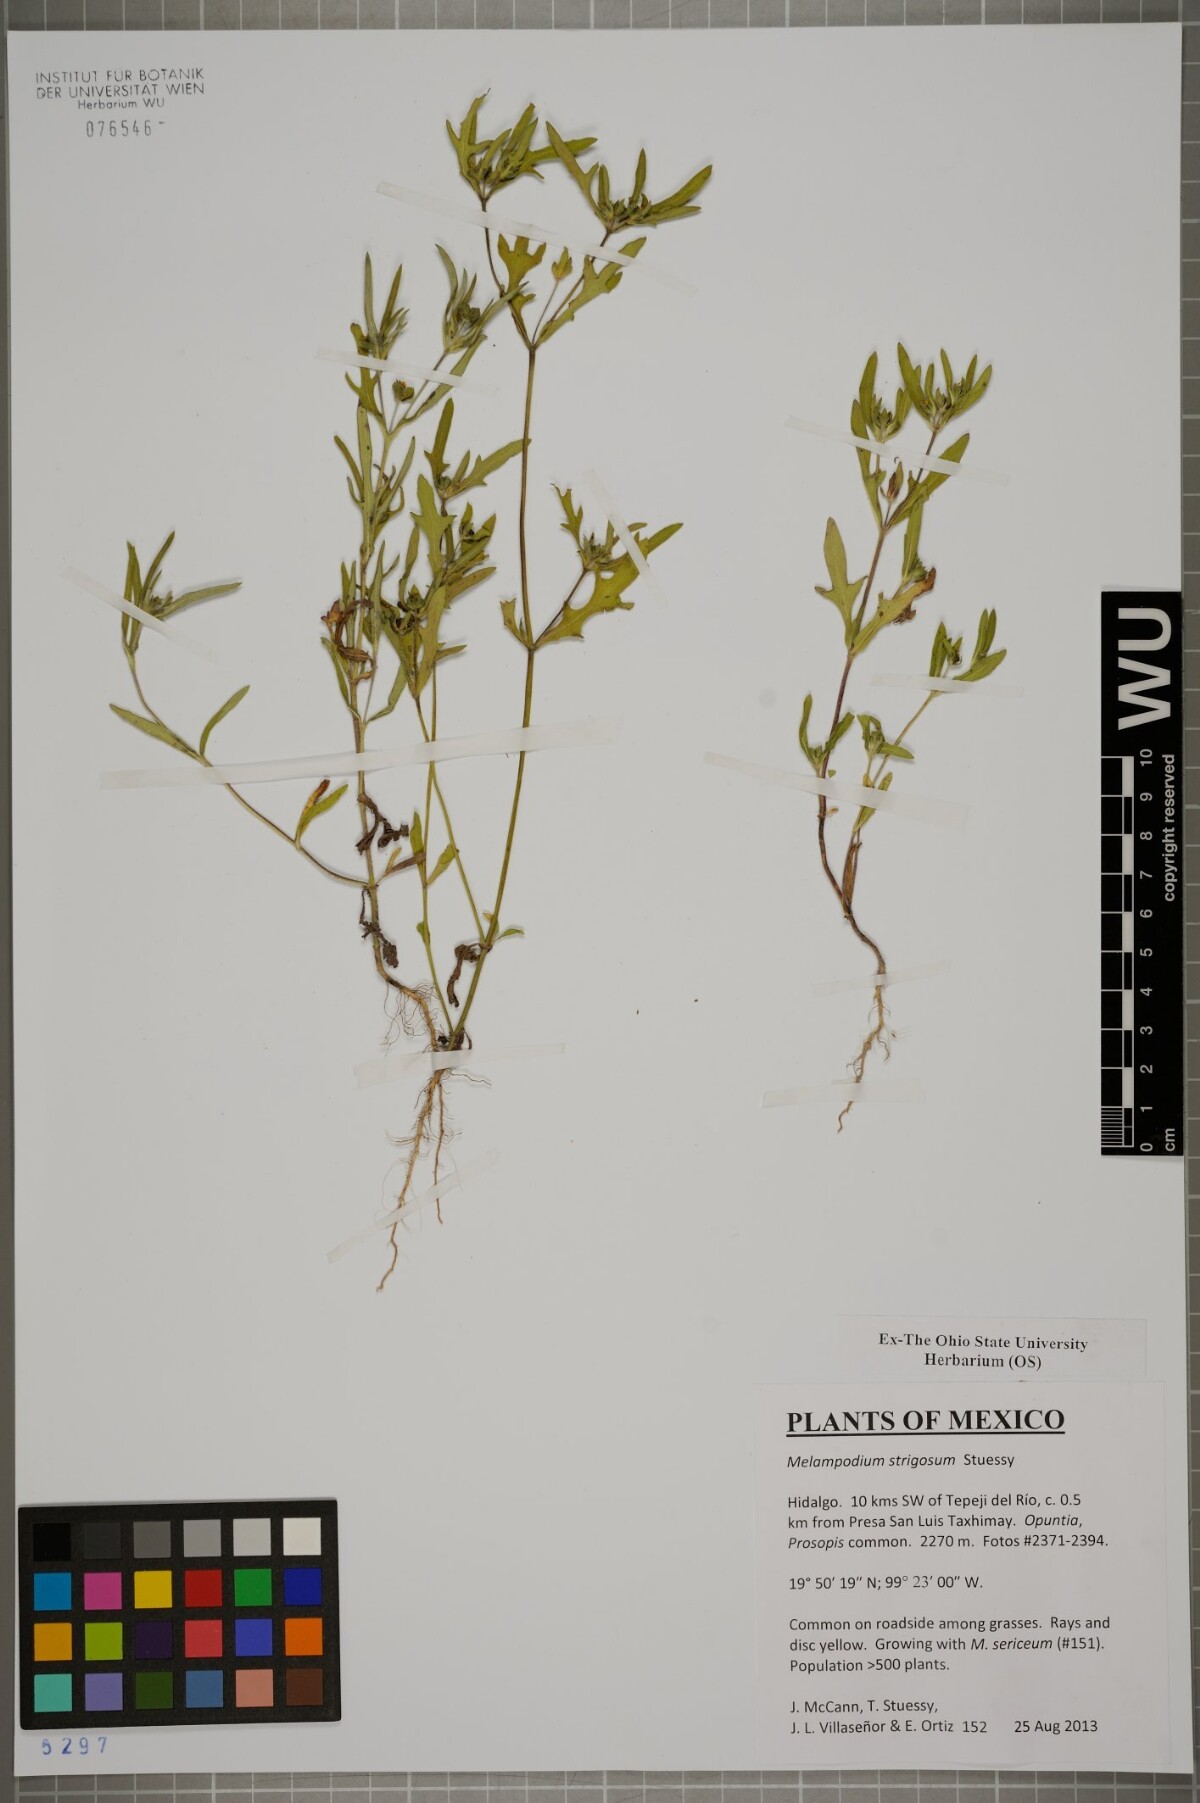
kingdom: Plantae
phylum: Tracheophyta
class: Magnoliopsida
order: Asterales
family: Asteraceae
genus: Melampodium
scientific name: Melampodium strigosum
